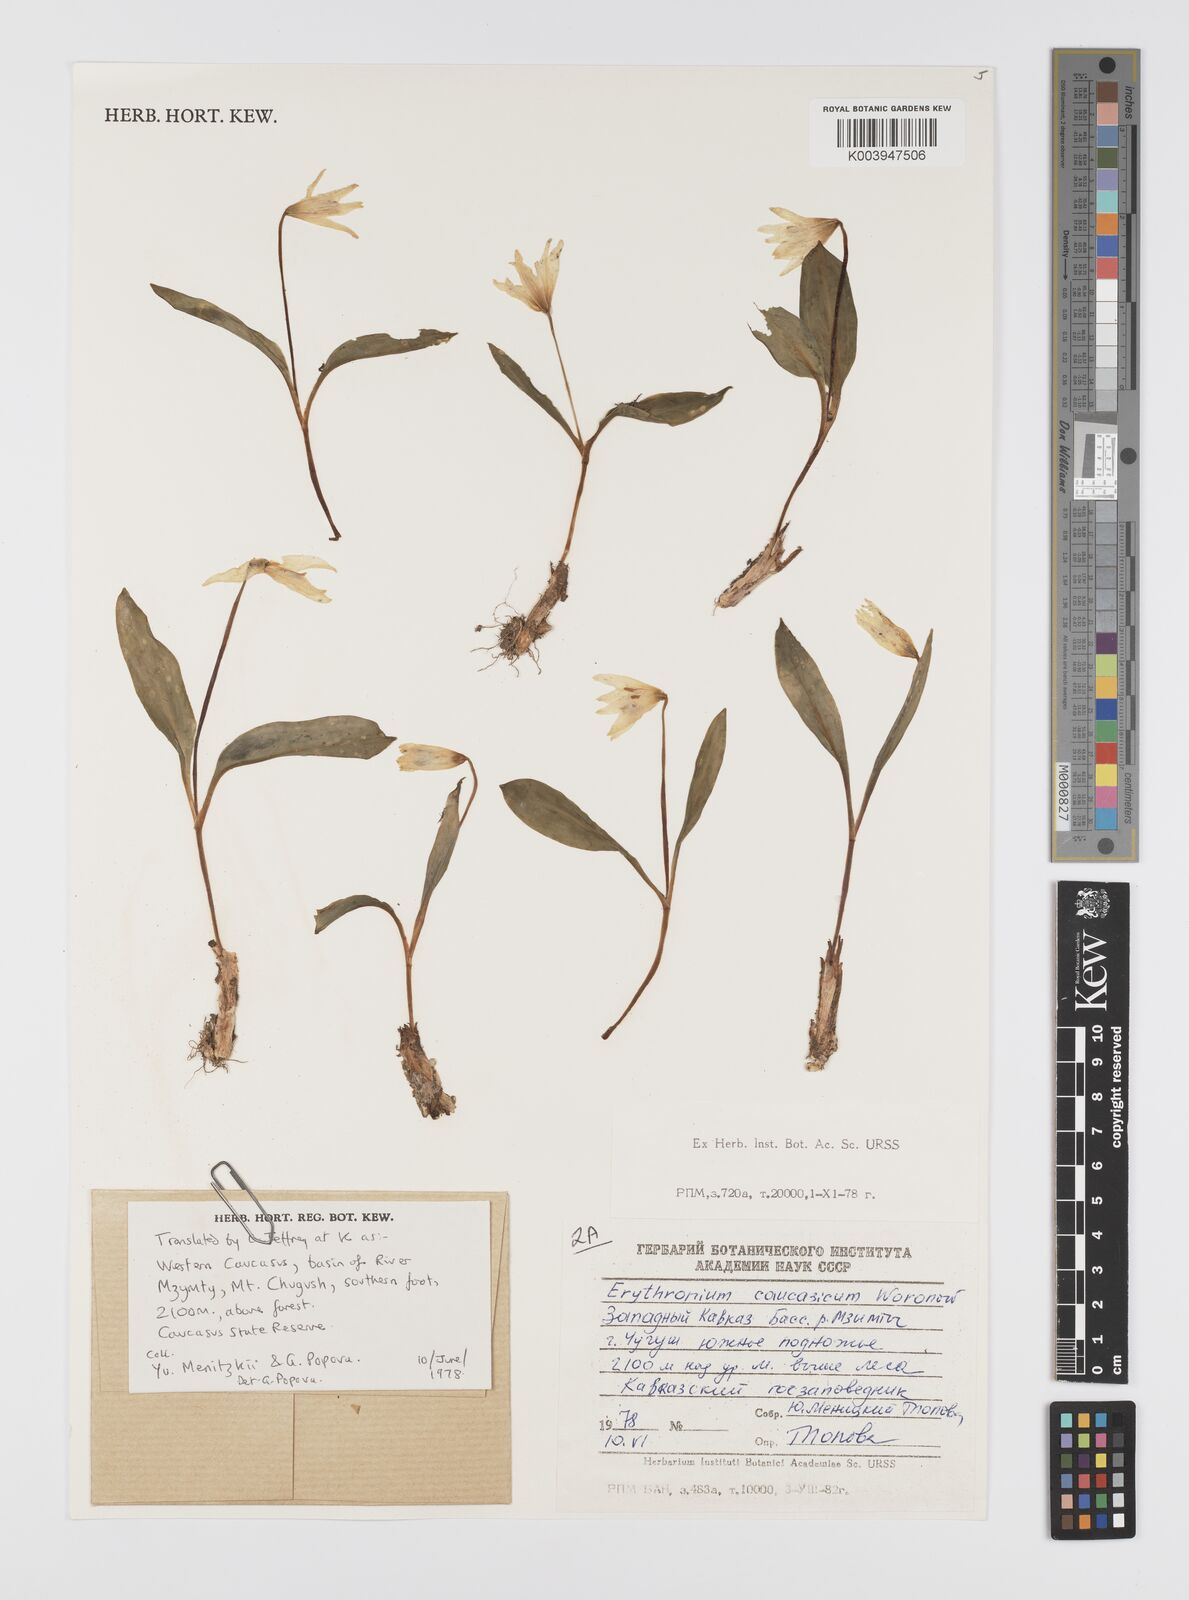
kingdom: Plantae
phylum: Tracheophyta
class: Liliopsida
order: Liliales
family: Liliaceae
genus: Erythronium
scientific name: Erythronium caucasicum
